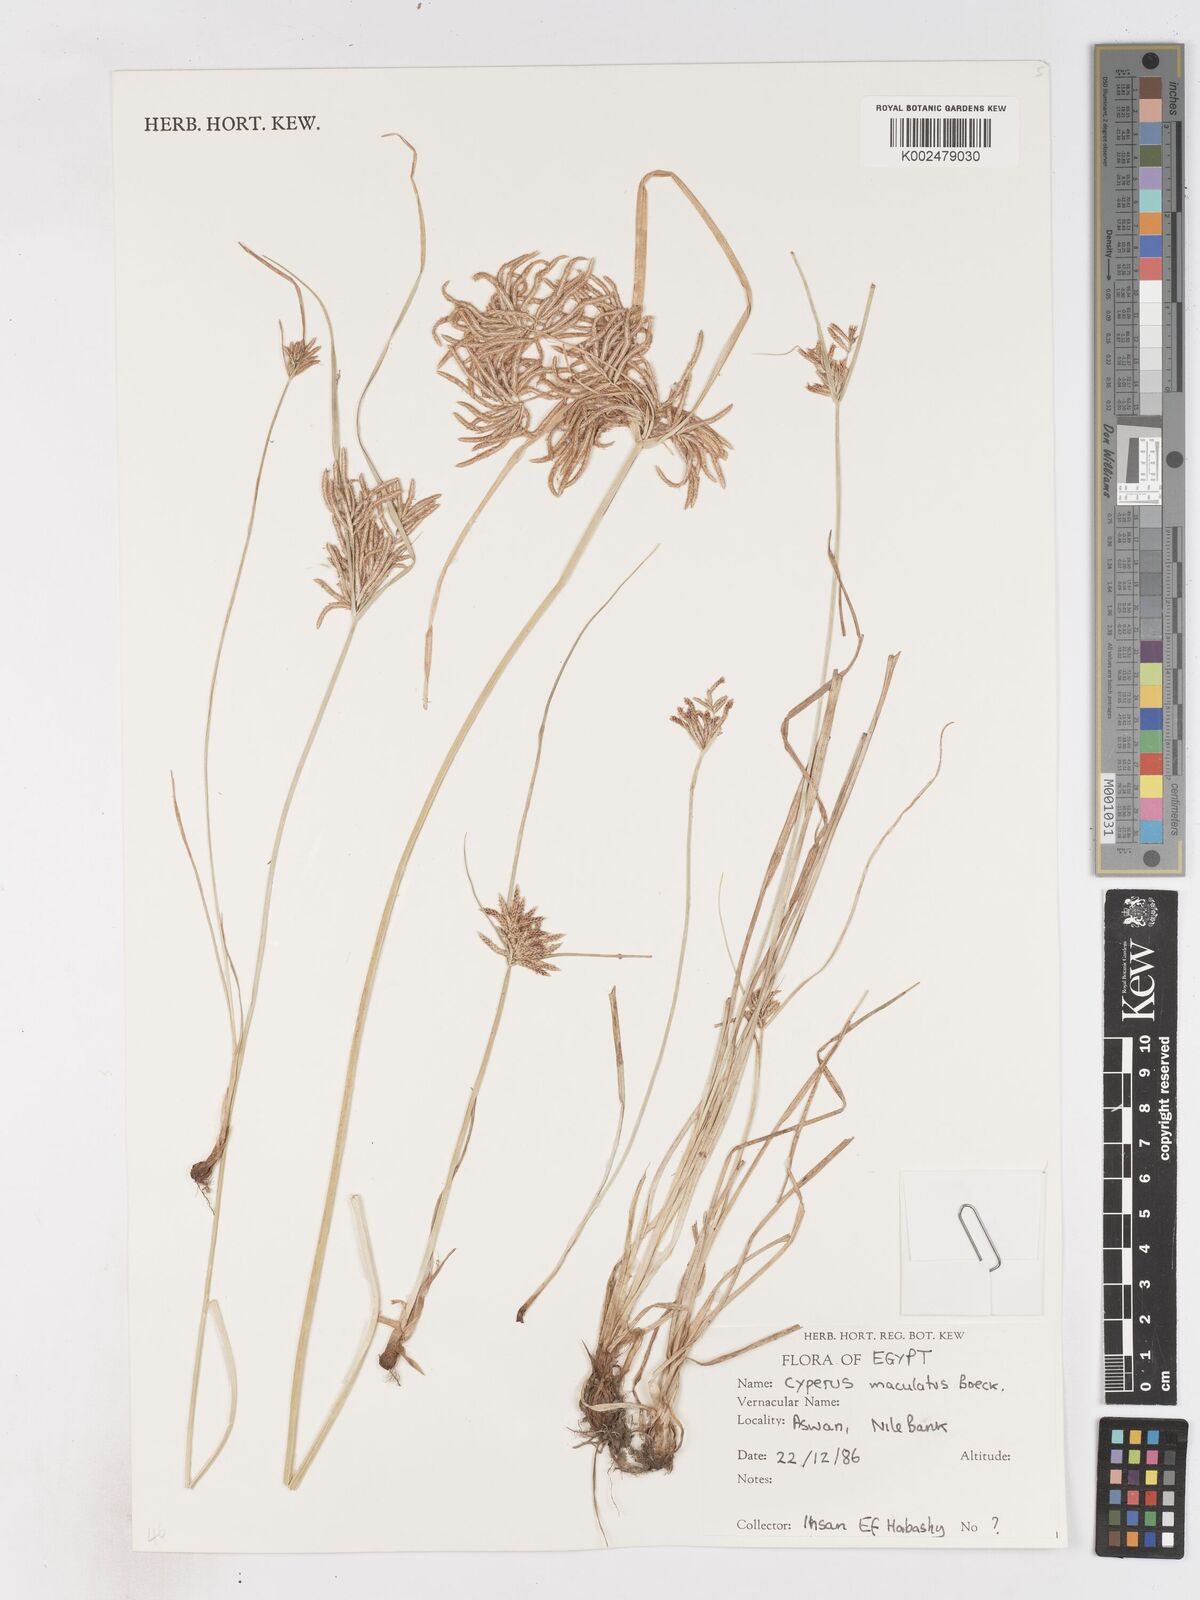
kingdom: Plantae
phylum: Tracheophyta
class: Liliopsida
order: Poales
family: Cyperaceae
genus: Cyperus
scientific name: Cyperus maculatus
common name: Maculated sedge
